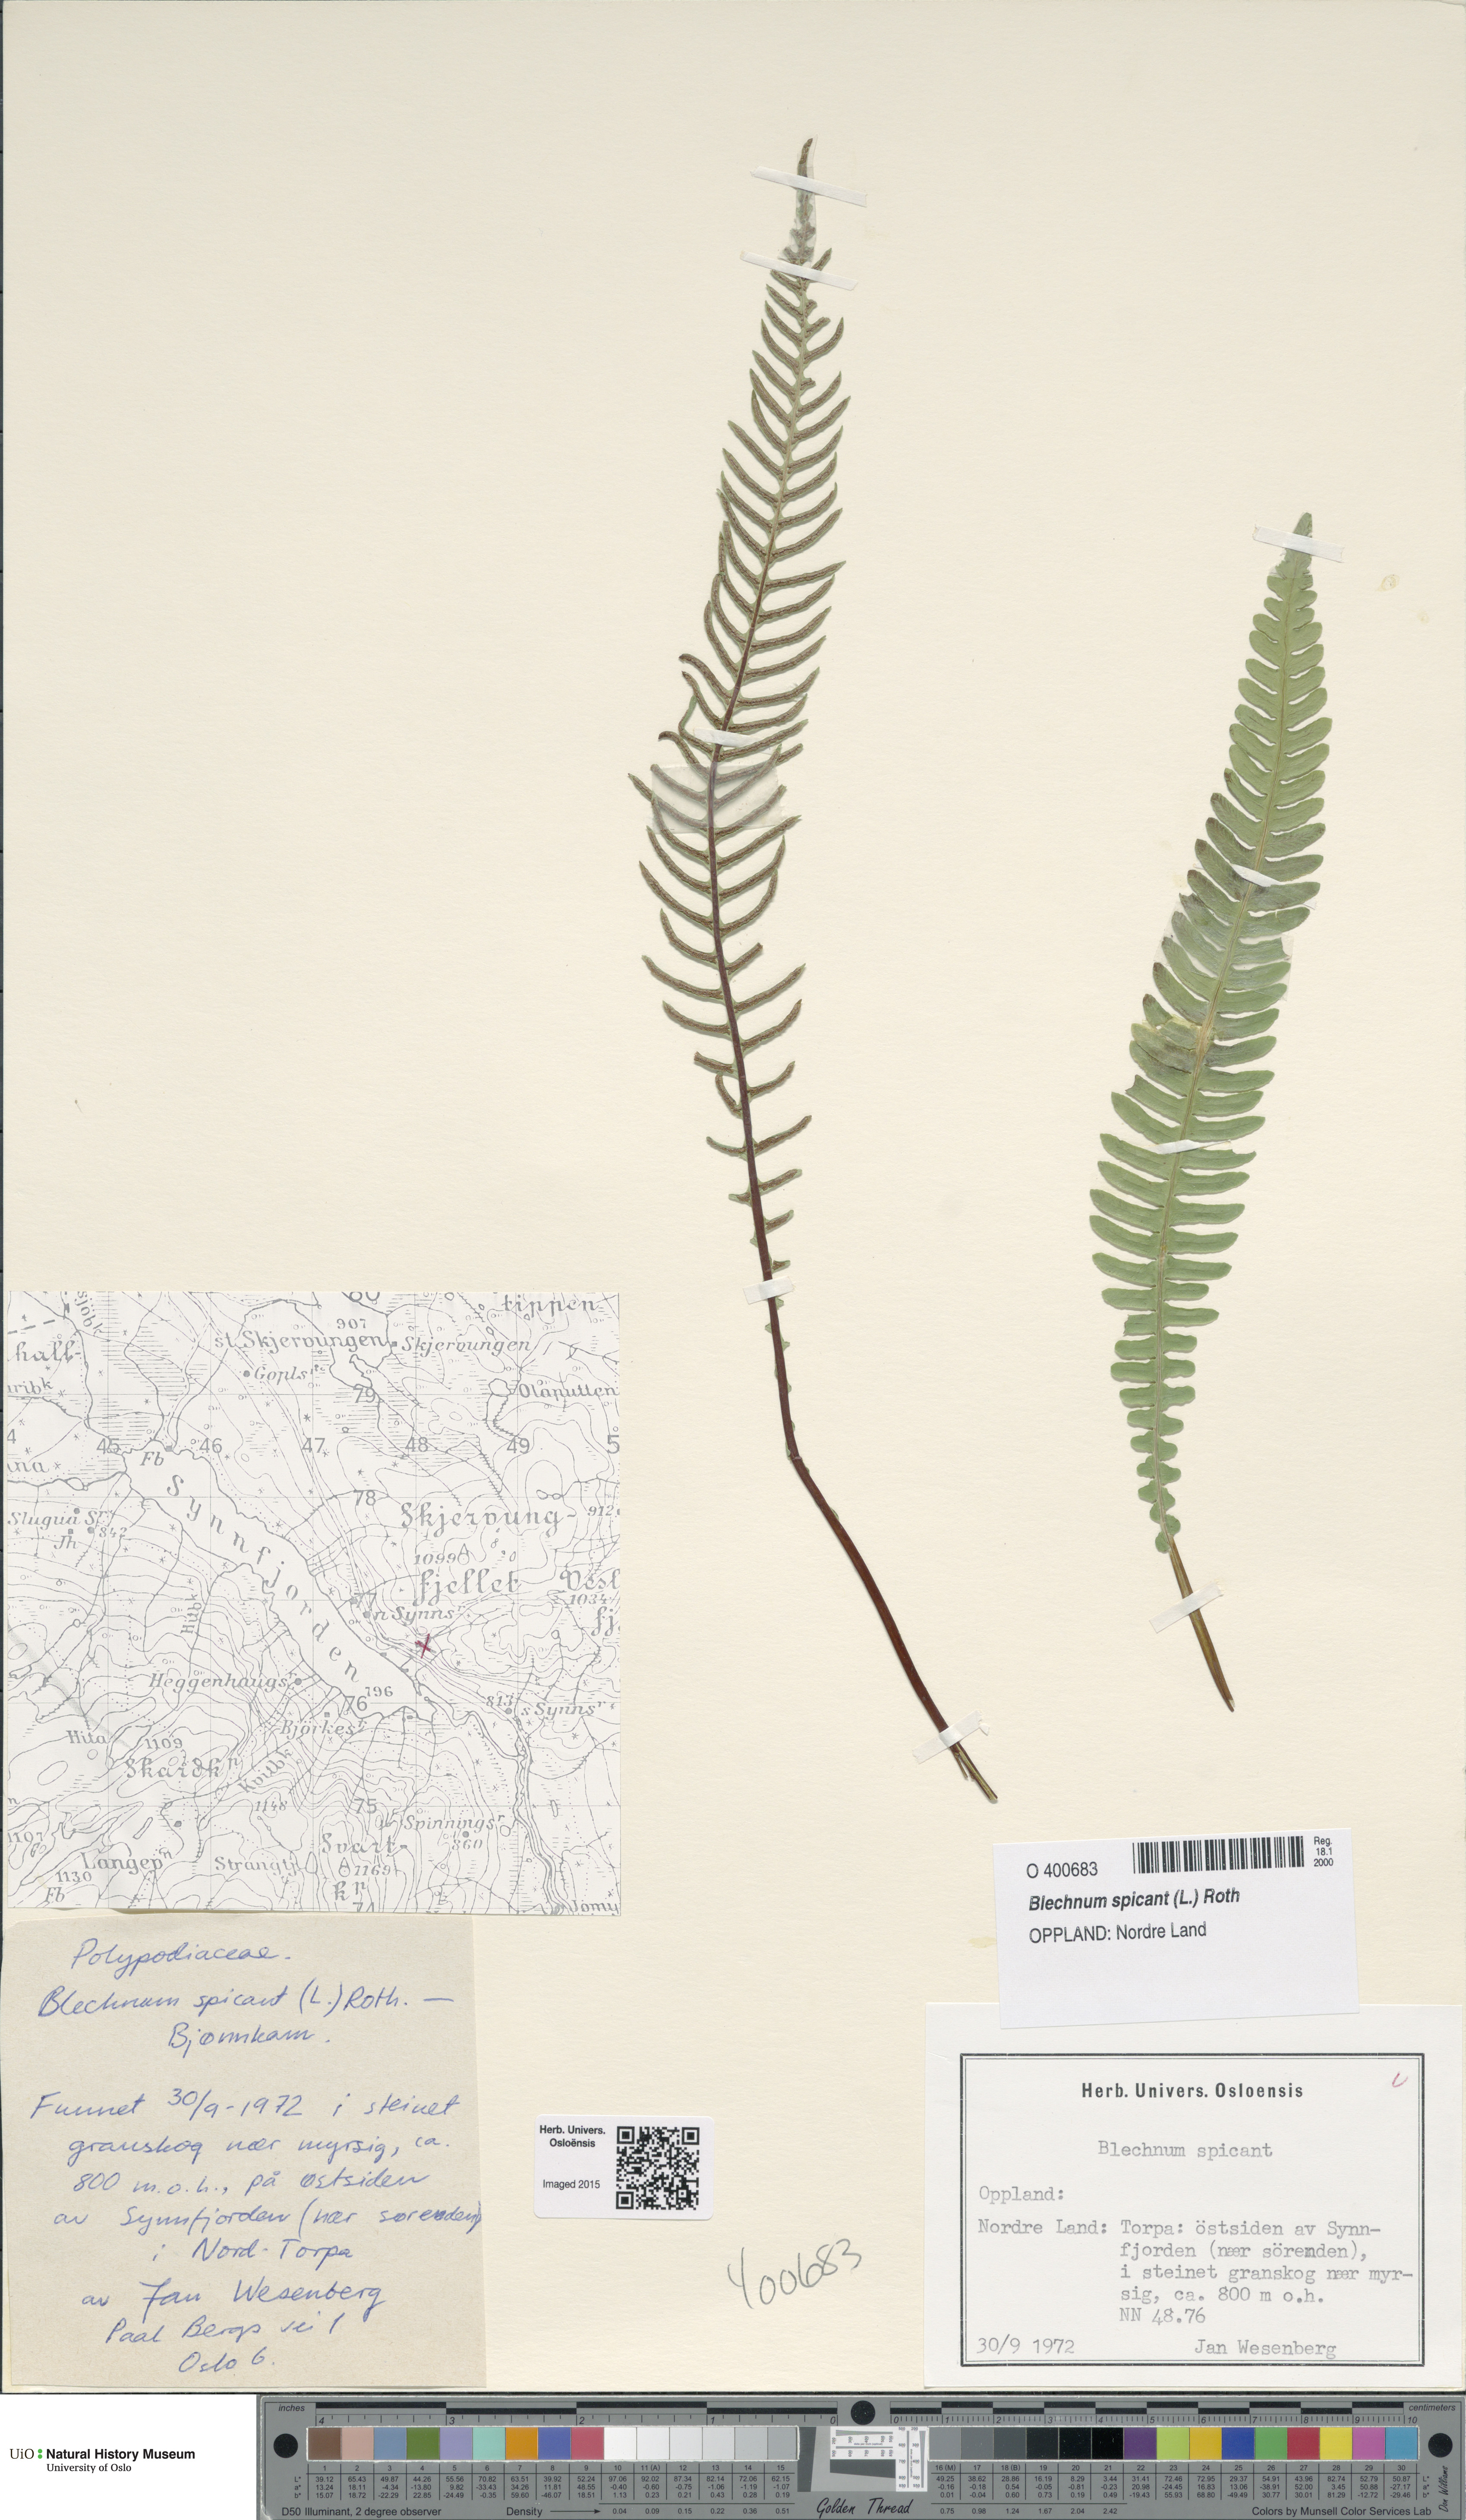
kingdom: Plantae
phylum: Tracheophyta
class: Polypodiopsida
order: Polypodiales
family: Blechnaceae
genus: Struthiopteris
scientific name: Struthiopteris spicant
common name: Deer fern
